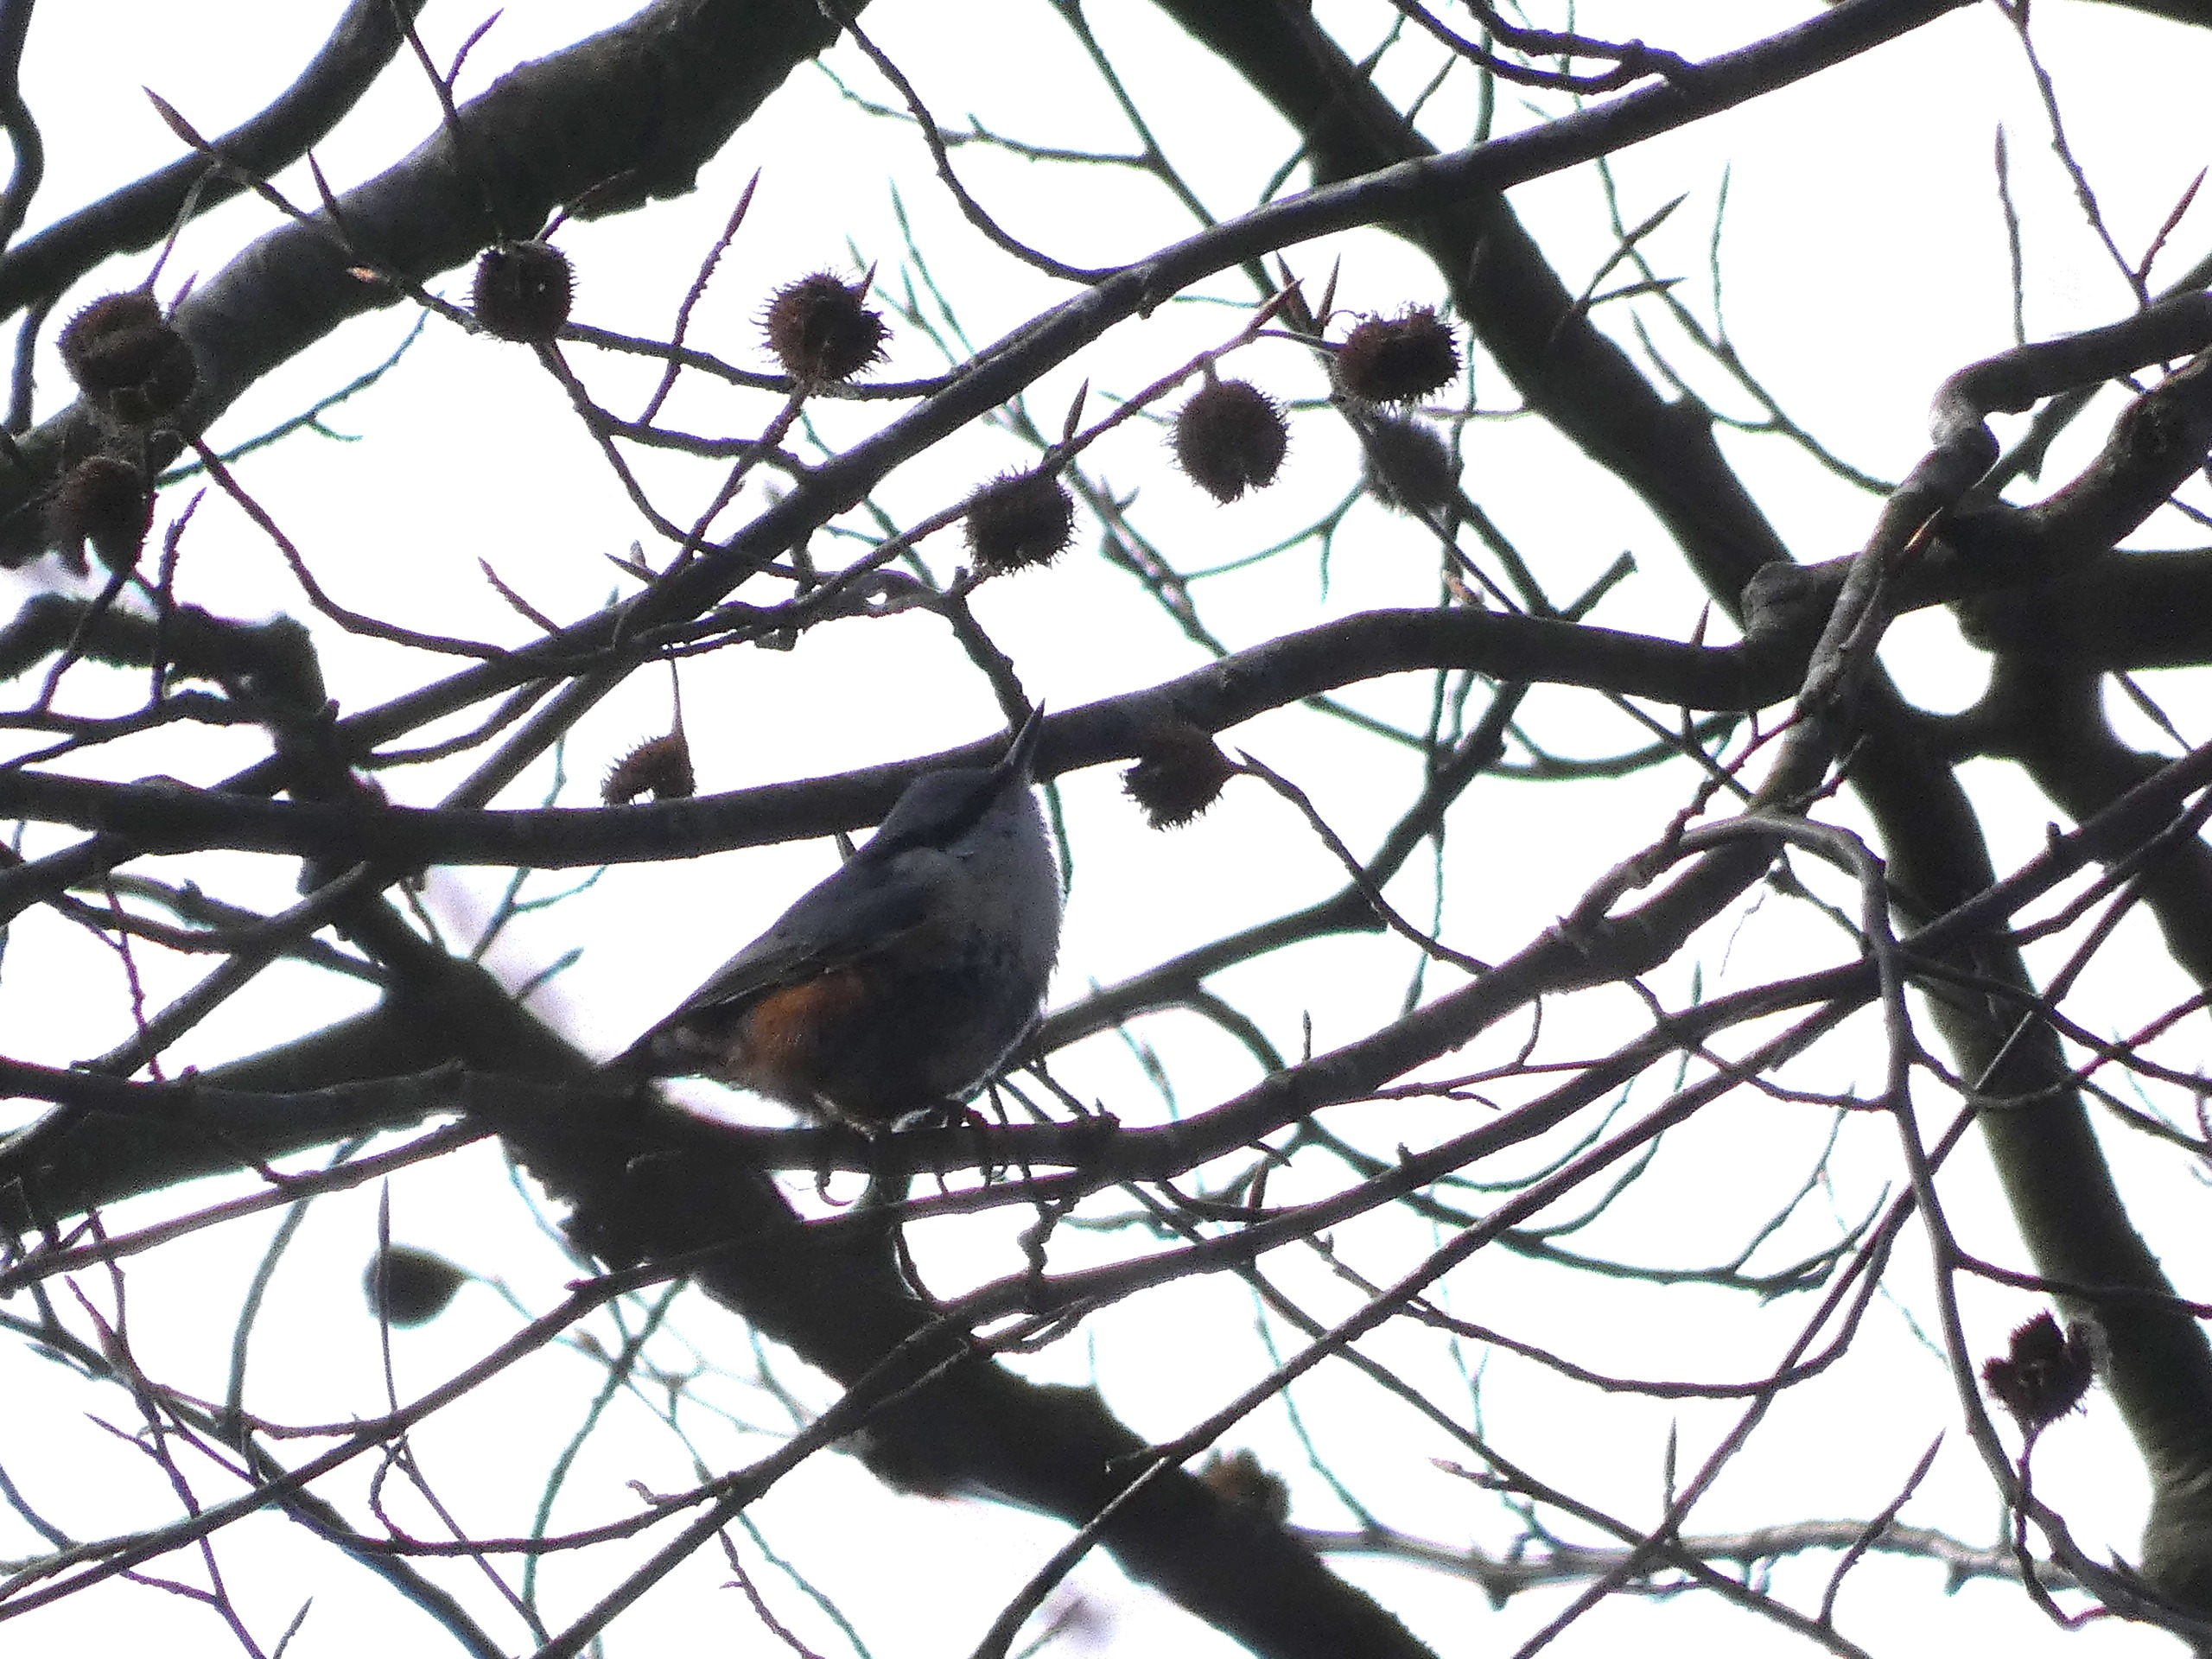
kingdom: Animalia
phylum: Chordata
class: Aves
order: Passeriformes
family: Sittidae
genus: Sitta
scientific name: Sitta europaea
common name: Spætmejse
